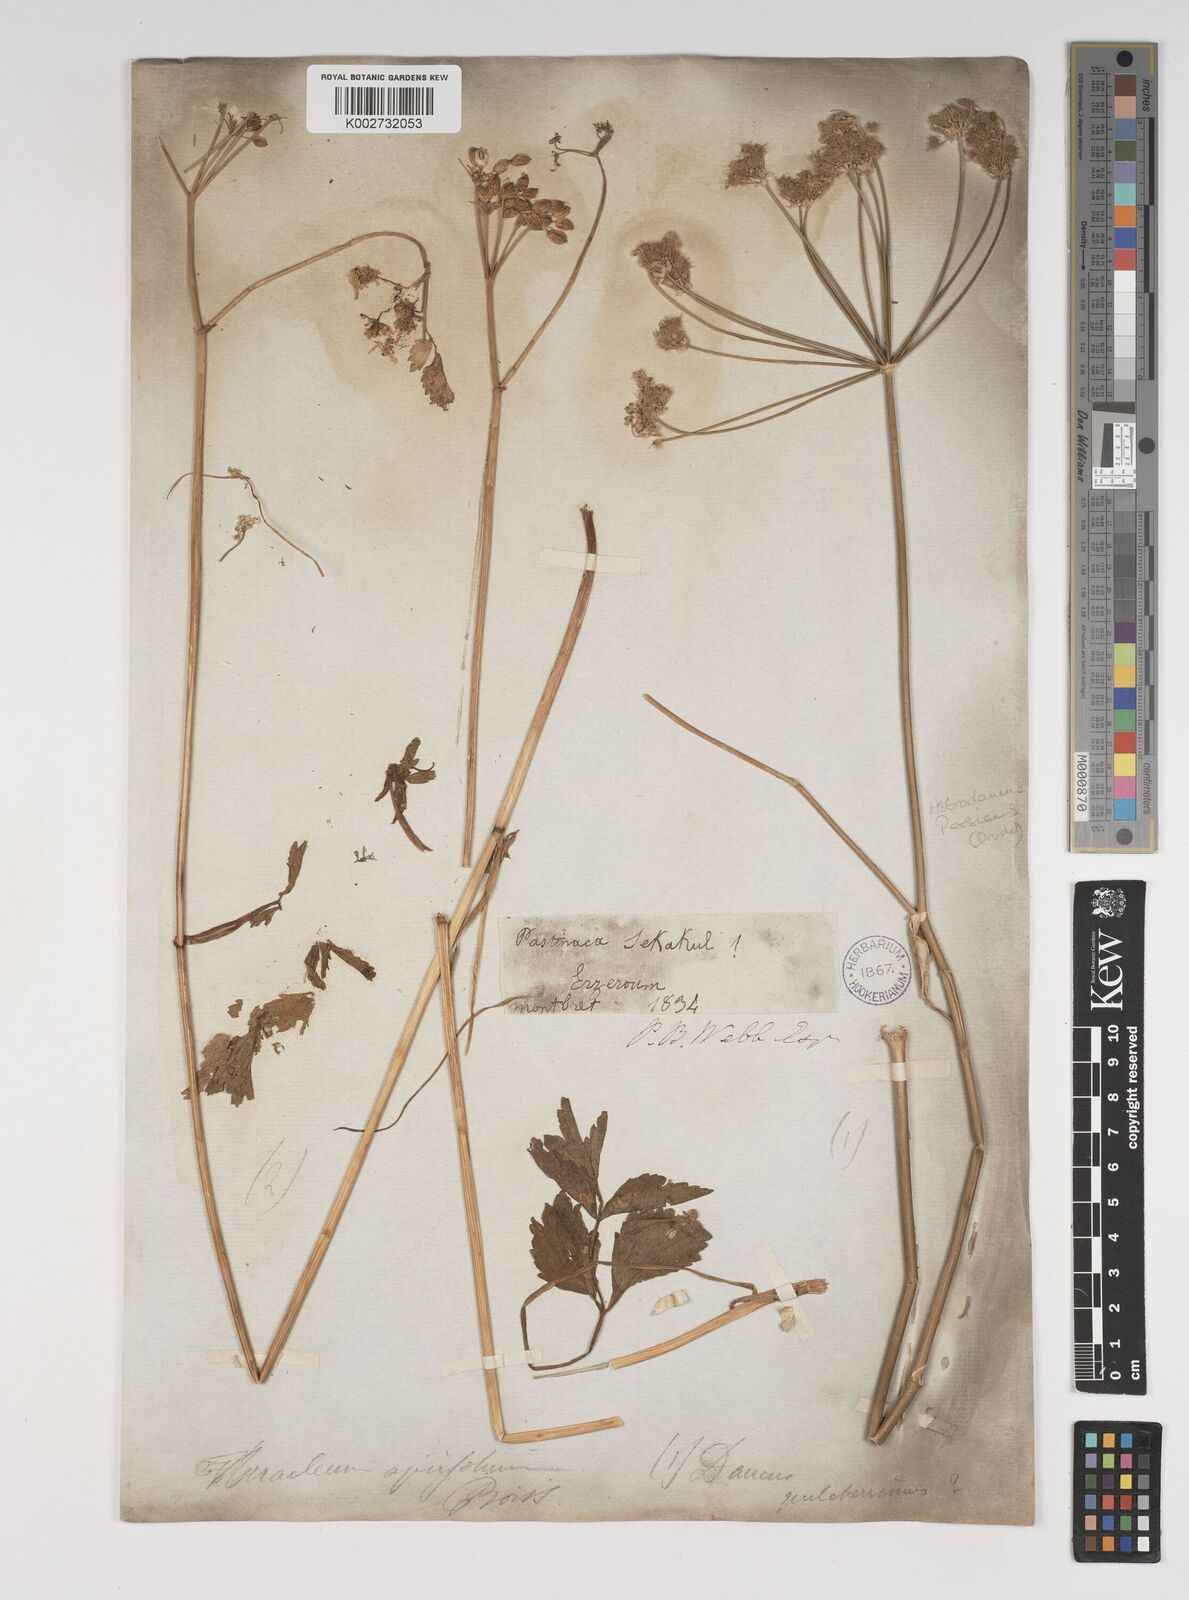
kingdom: Plantae
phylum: Tracheophyta
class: Magnoliopsida
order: Apiales
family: Apiaceae
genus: Astrodaucus
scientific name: Astrodaucus
